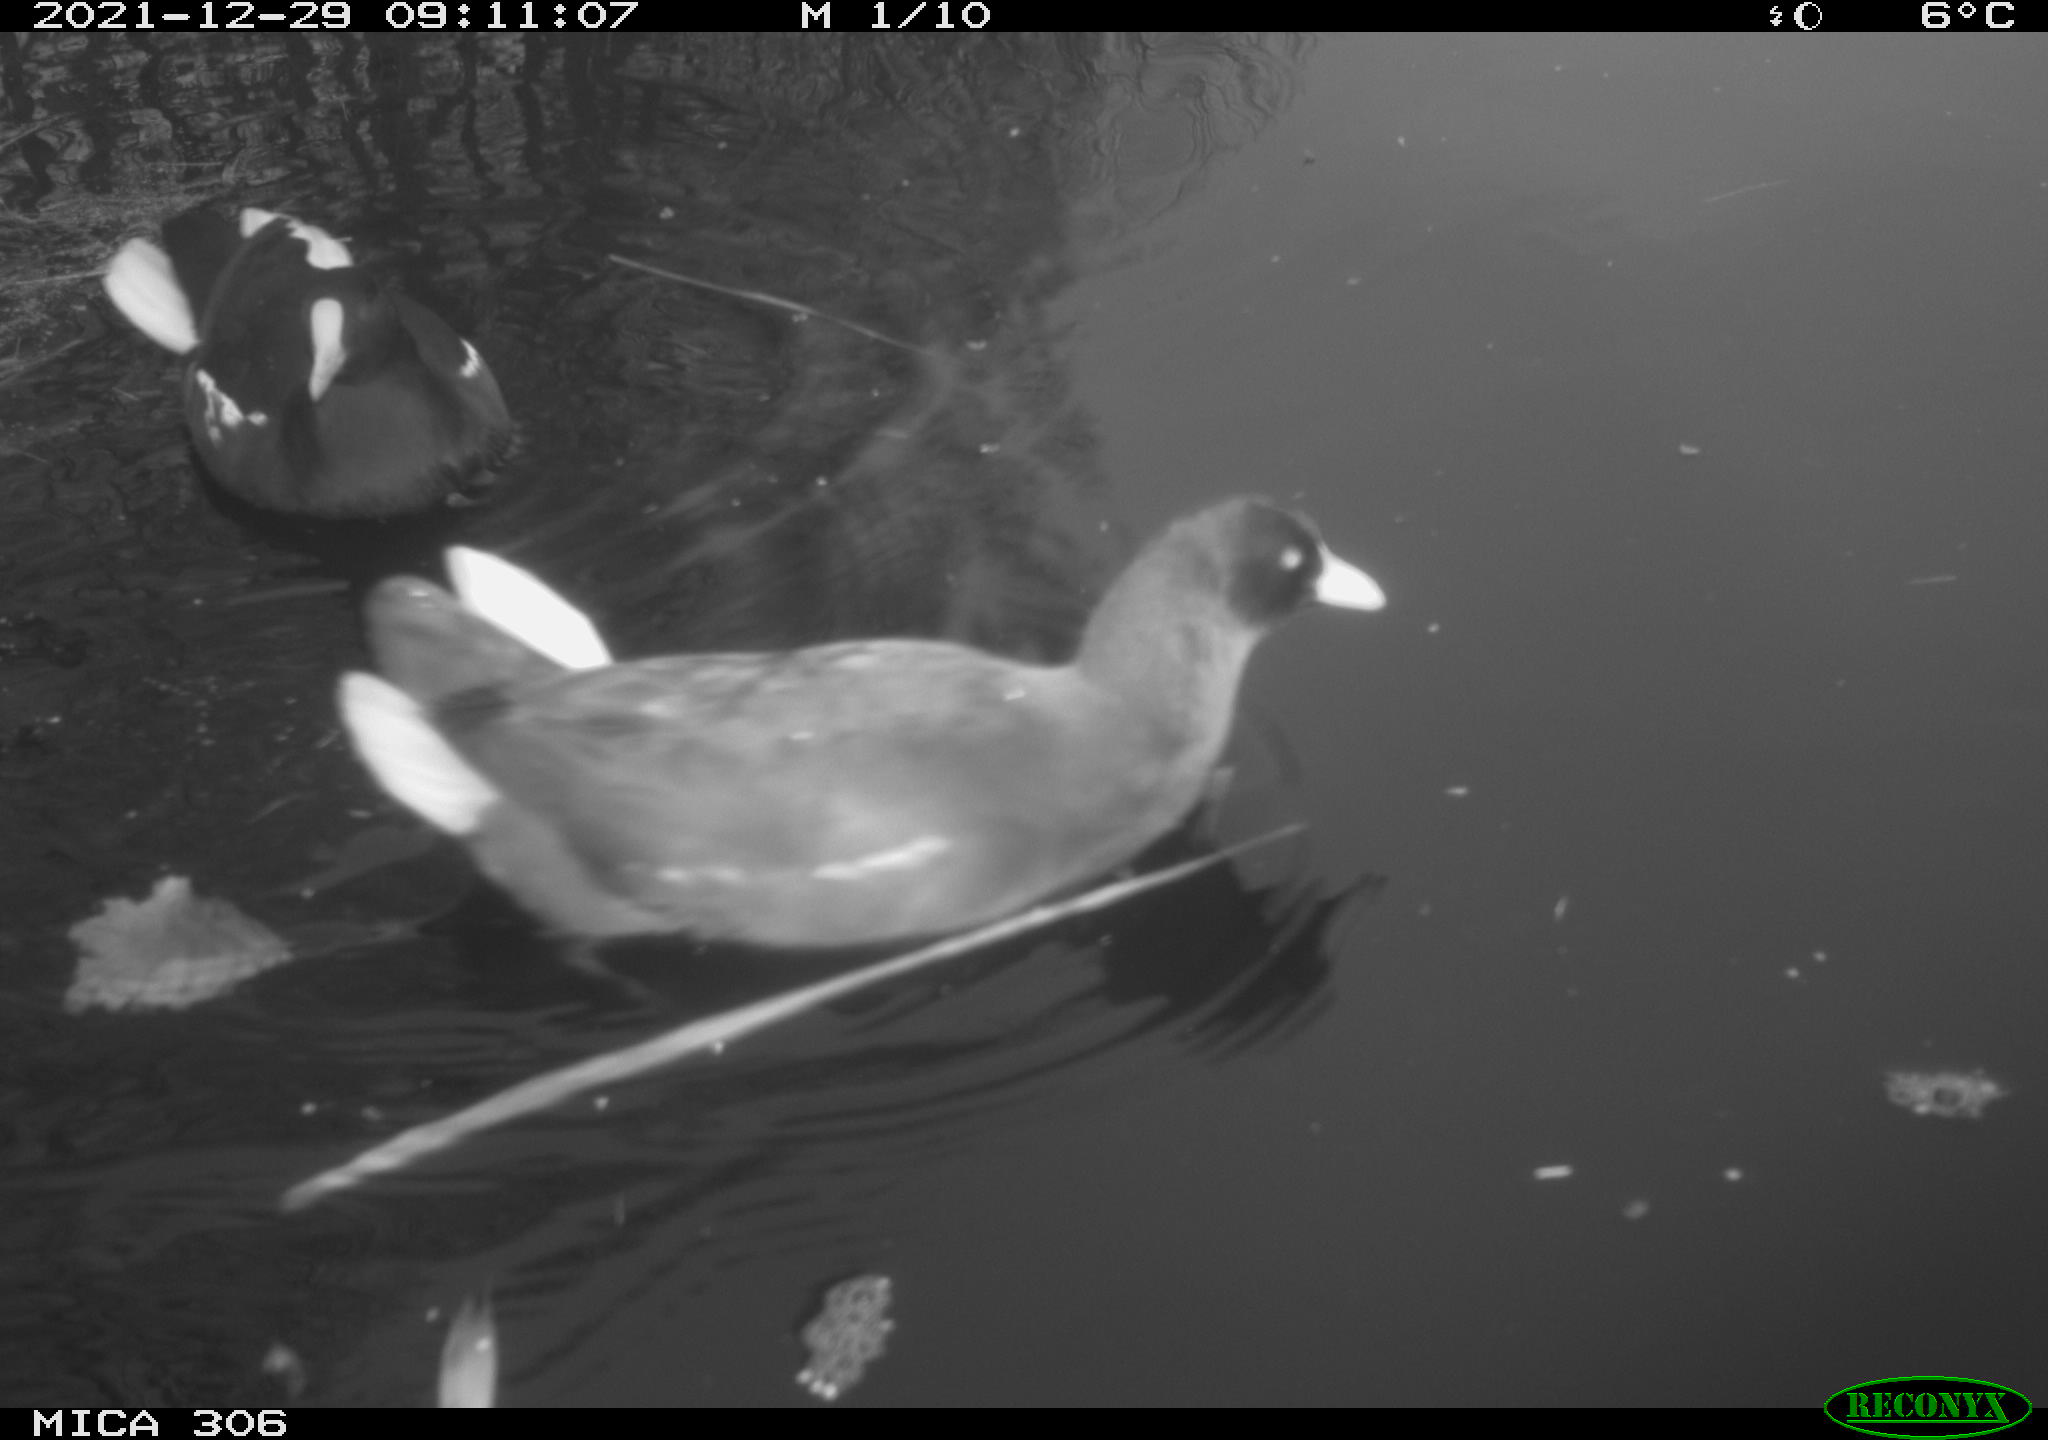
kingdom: Animalia
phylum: Chordata
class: Aves
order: Gruiformes
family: Rallidae
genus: Gallinula
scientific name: Gallinula chloropus
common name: Common moorhen
